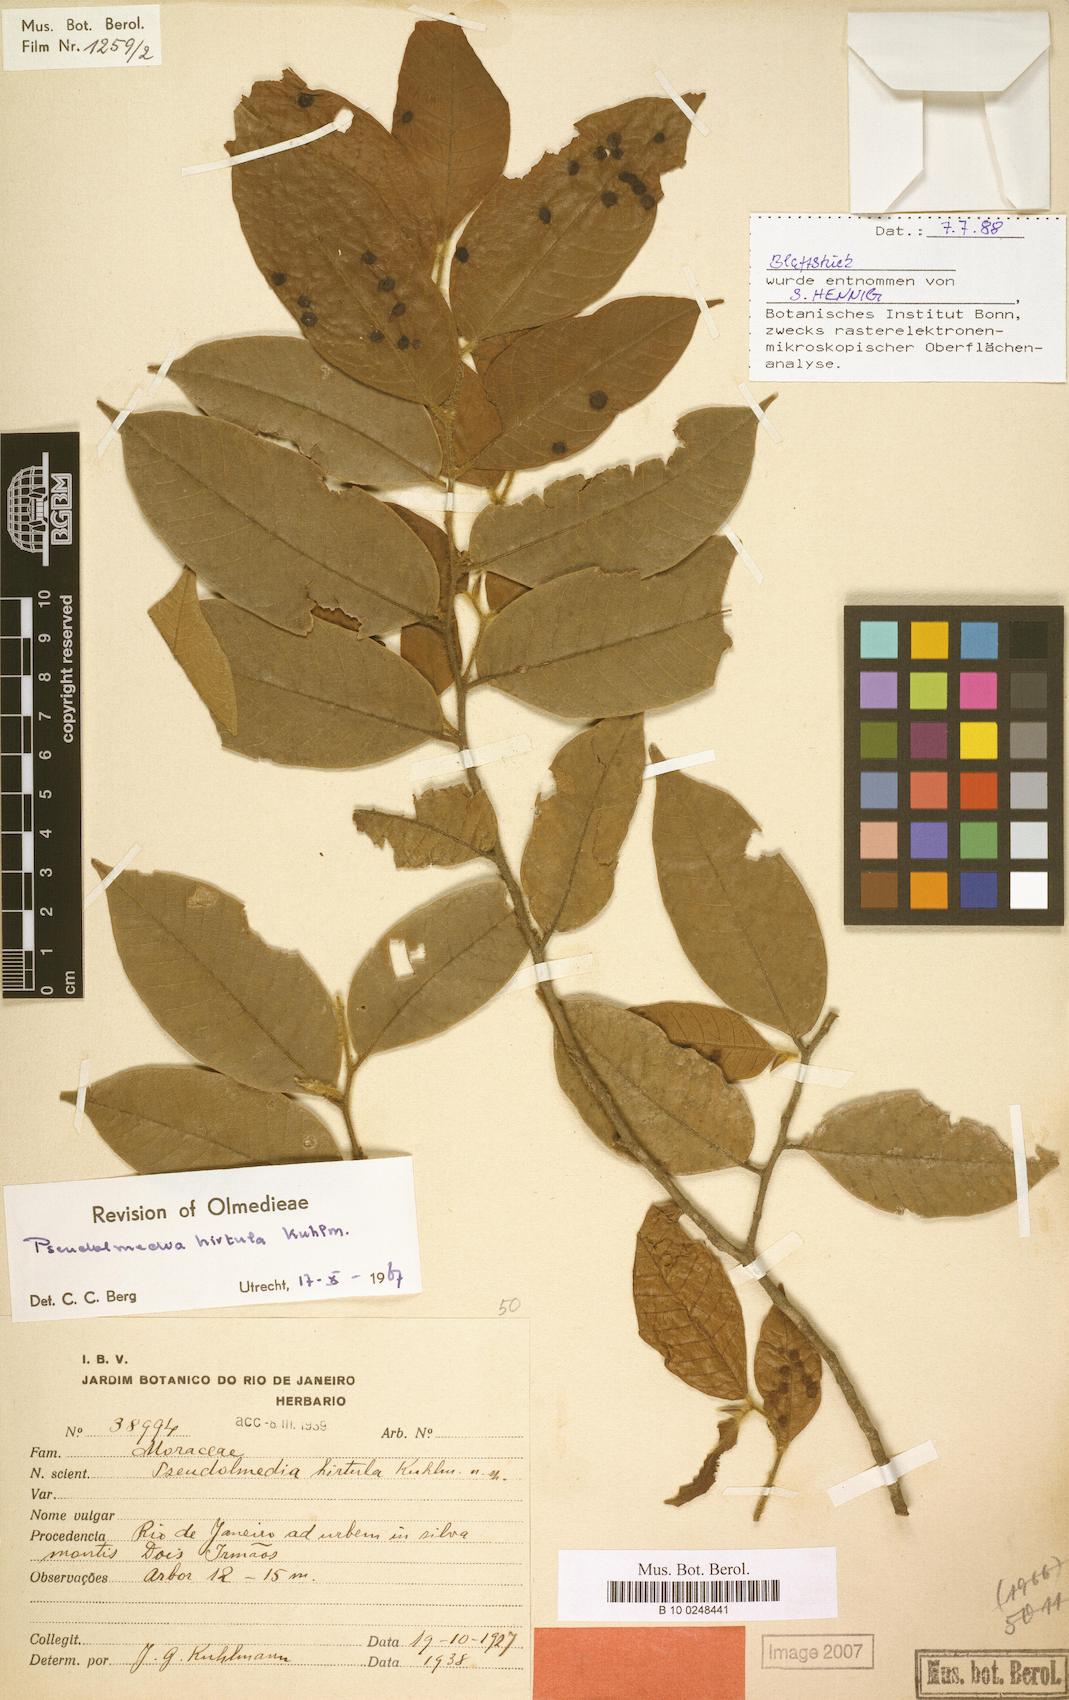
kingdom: Plantae
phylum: Tracheophyta
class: Magnoliopsida
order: Rosales
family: Moraceae
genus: Pseudolmedia
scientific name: Pseudolmedia hirtula
